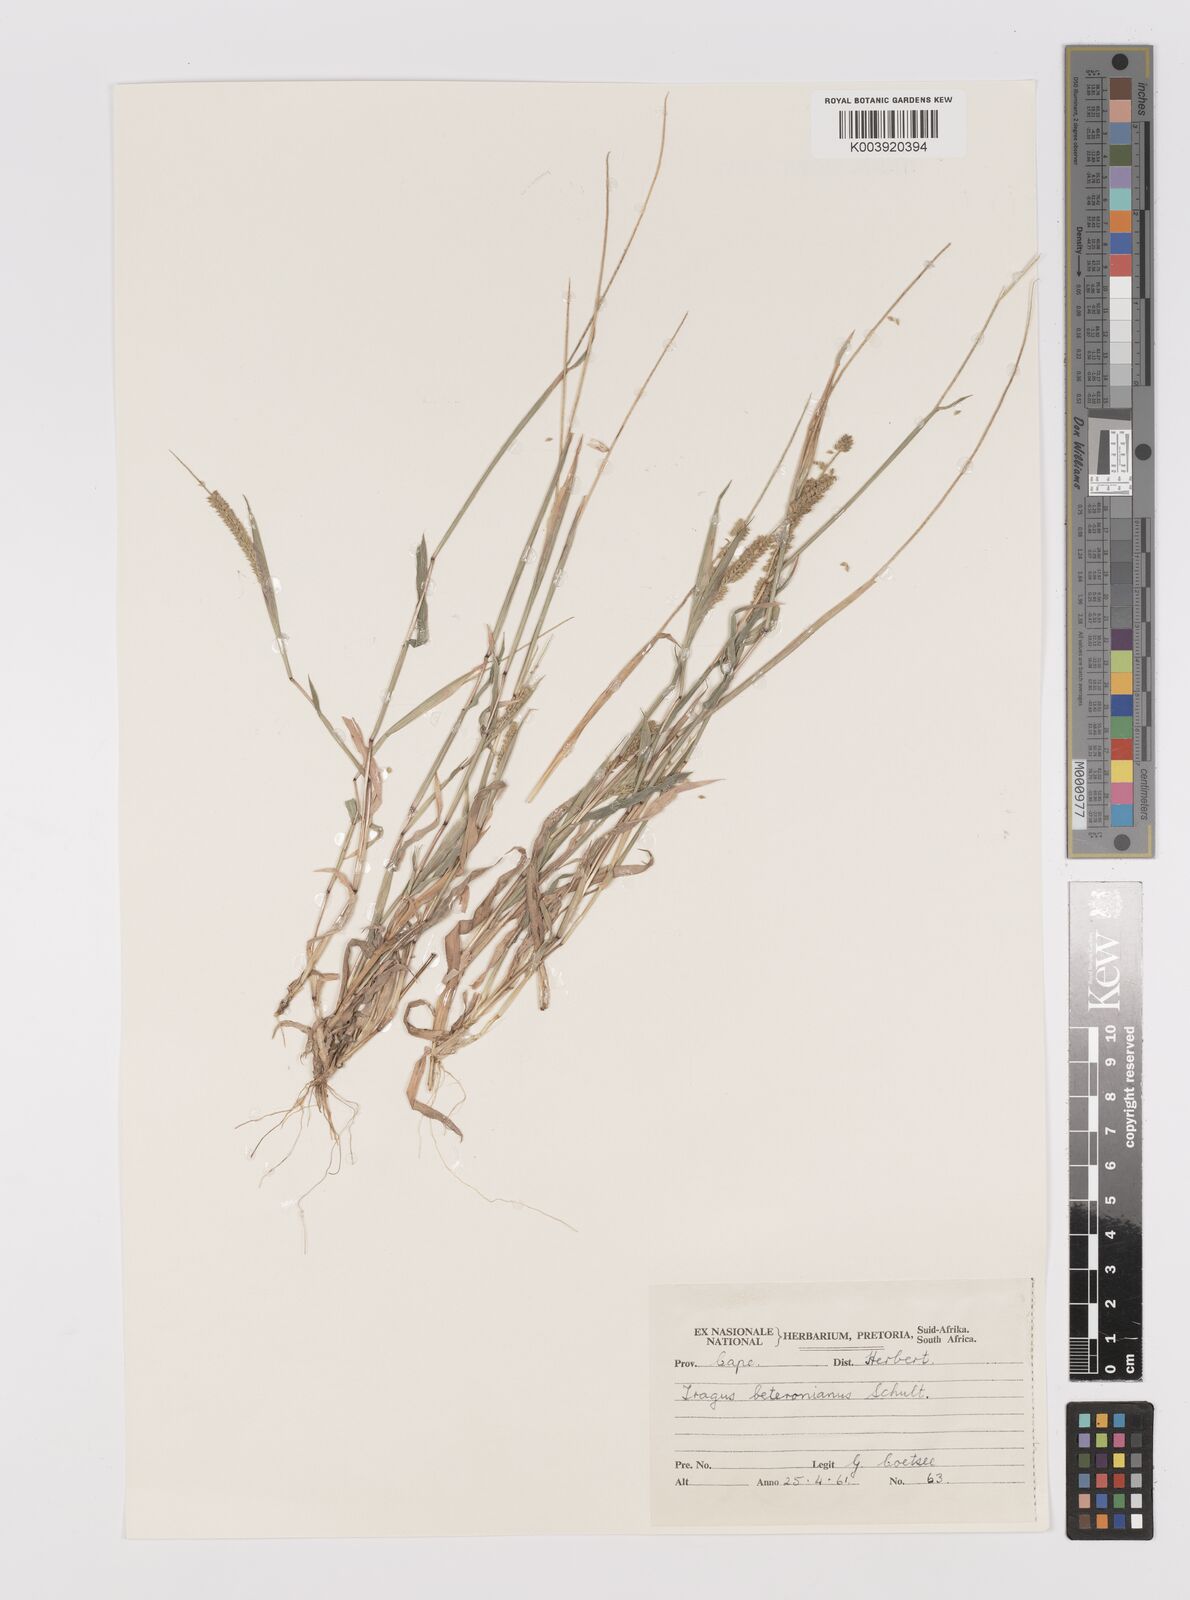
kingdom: Plantae
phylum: Tracheophyta
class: Liliopsida
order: Poales
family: Poaceae
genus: Tragus
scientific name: Tragus berteronianus
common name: African bur-grass
